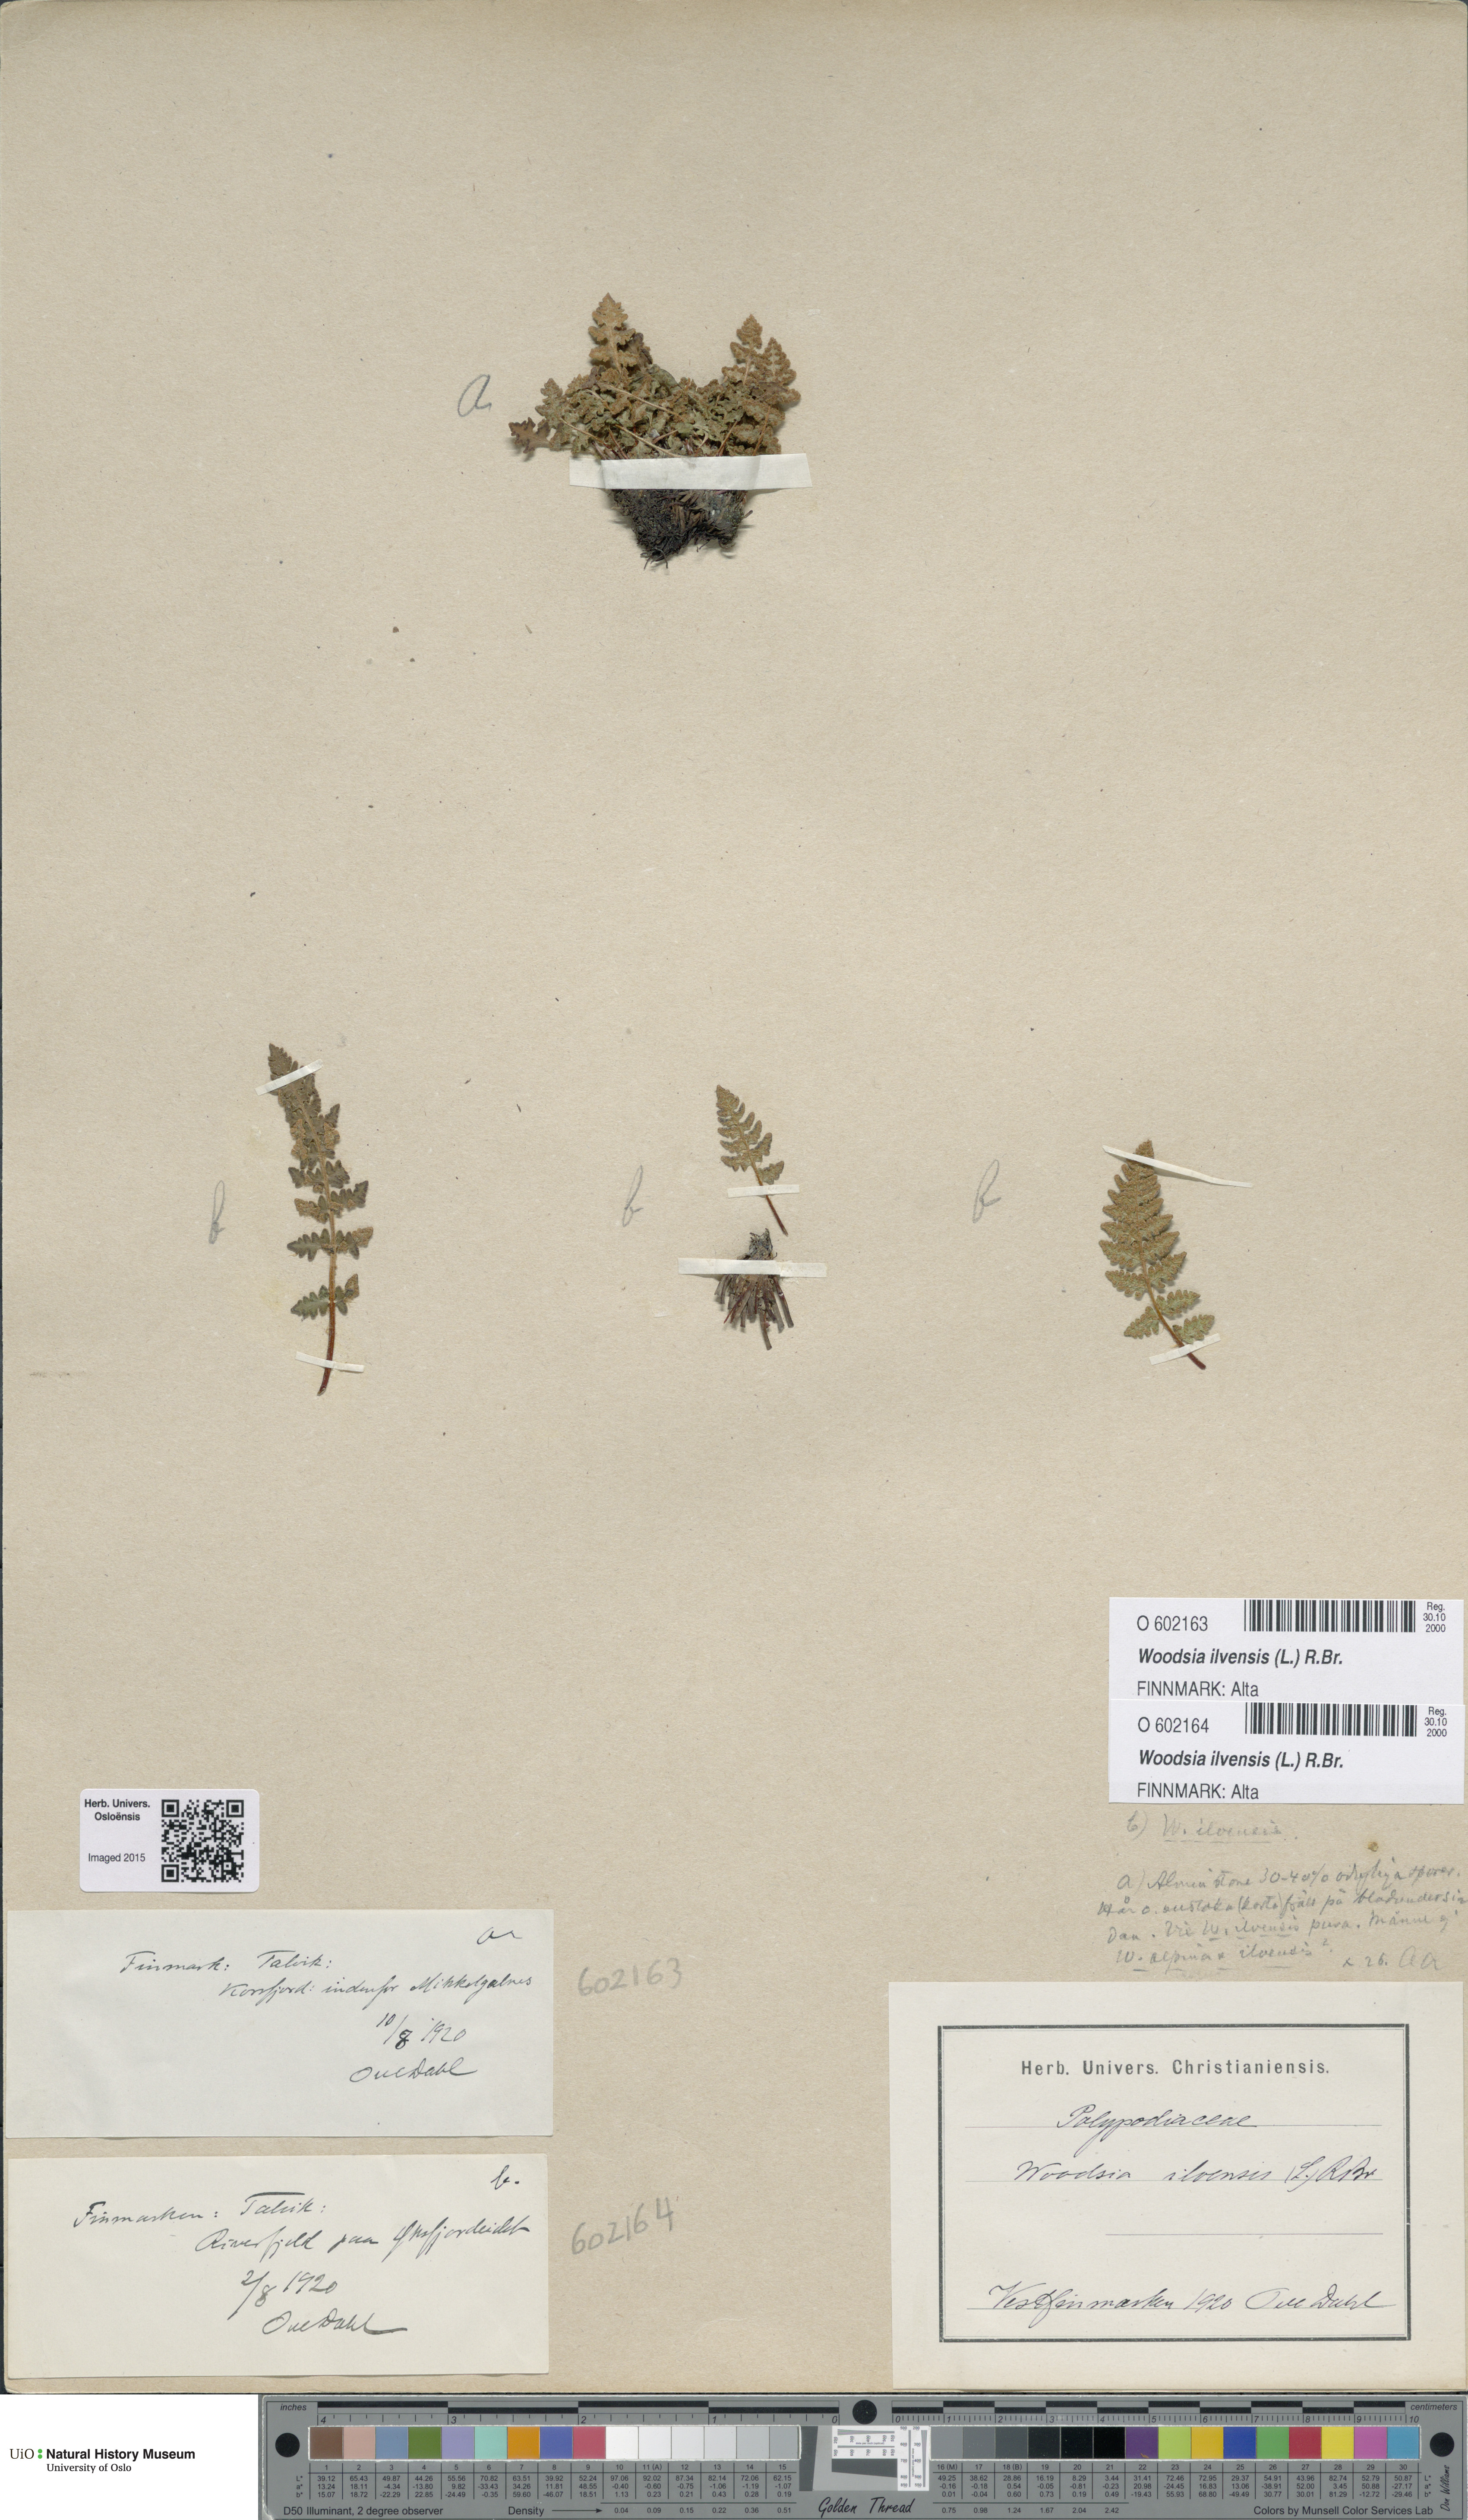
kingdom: Plantae
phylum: Tracheophyta
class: Polypodiopsida
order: Polypodiales
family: Woodsiaceae
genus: Woodsia
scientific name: Woodsia ilvensis
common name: Fragrant woodsia
